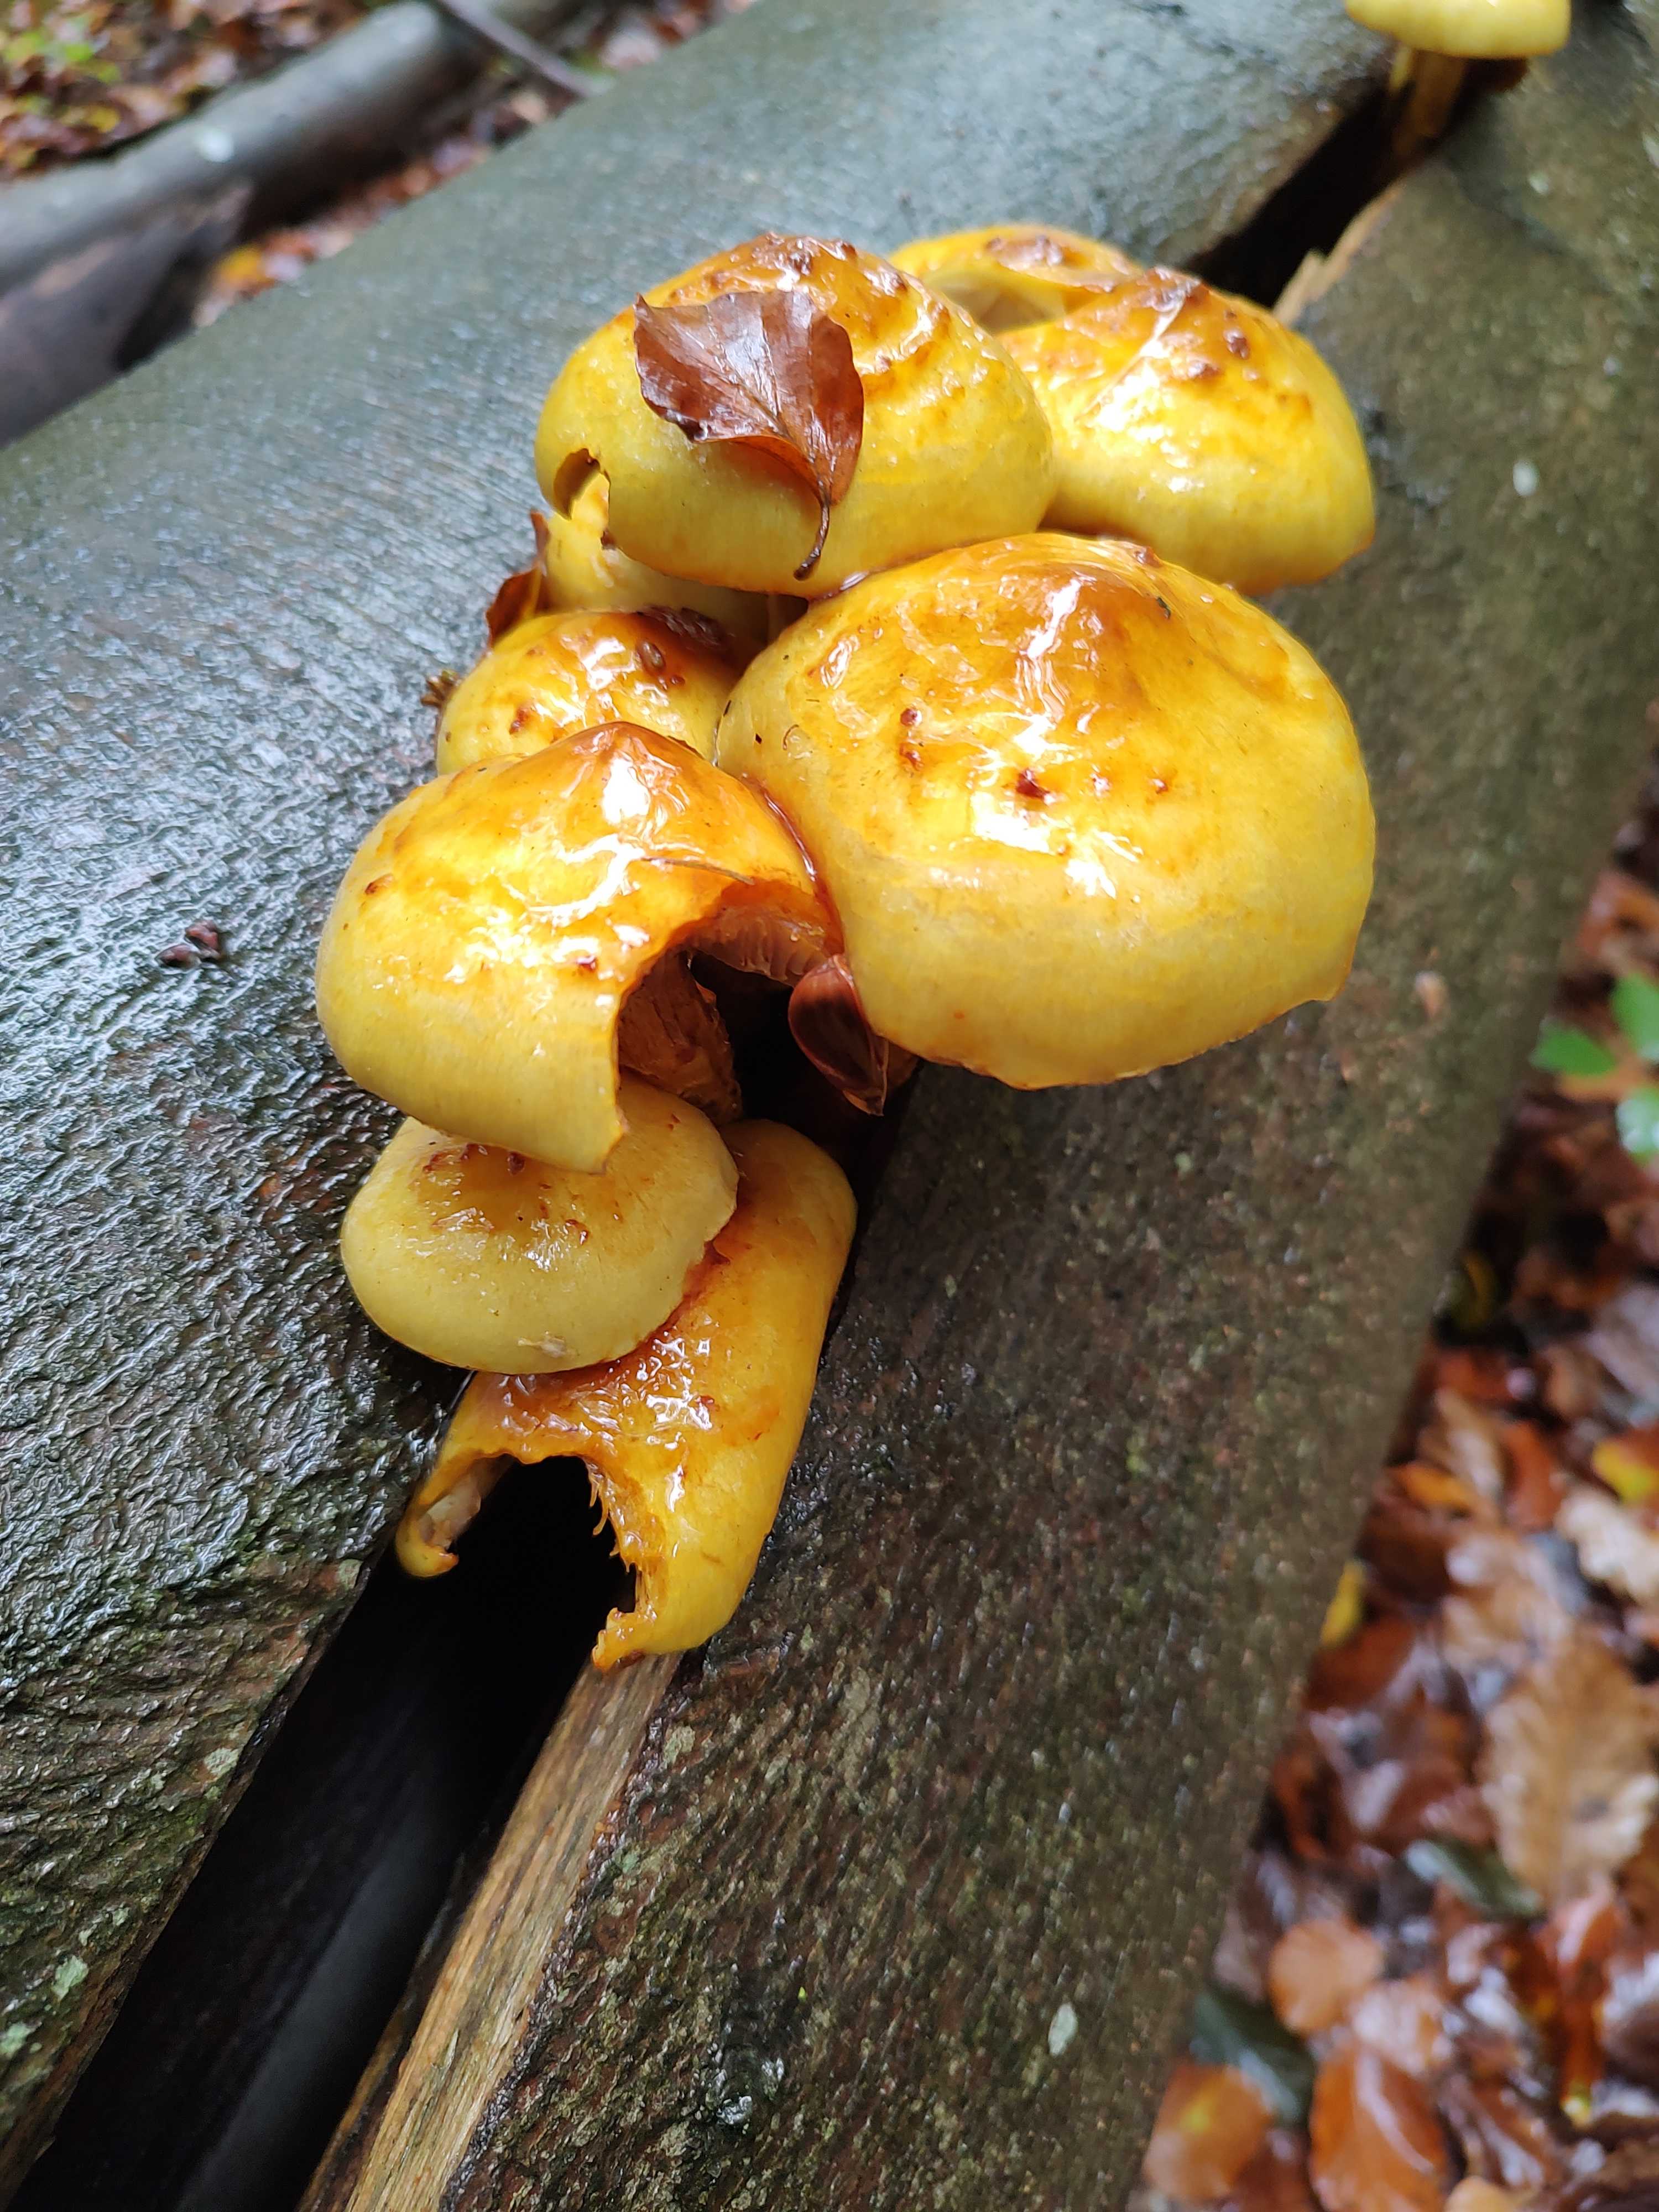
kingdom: Fungi
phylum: Basidiomycota
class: Agaricomycetes
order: Agaricales
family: Strophariaceae
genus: Pholiota
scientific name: Pholiota adiposa
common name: højtsiddende skælhat
